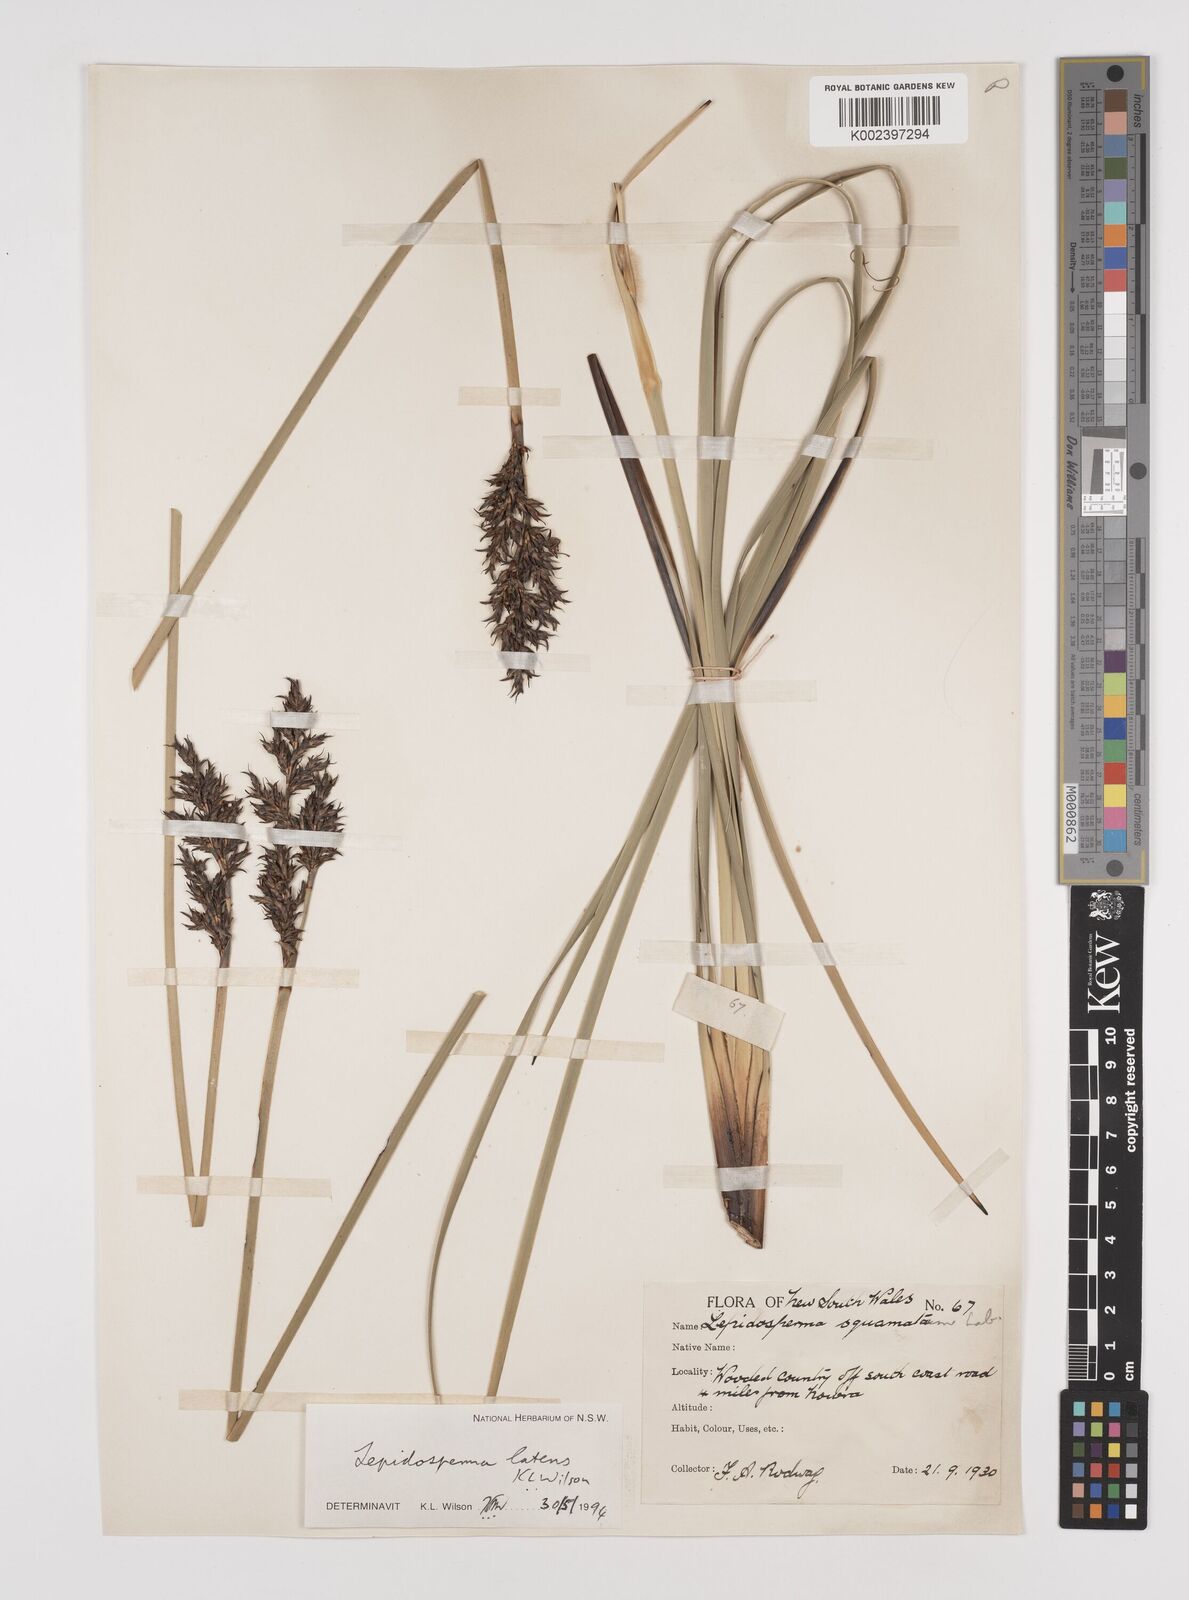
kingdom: Plantae
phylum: Tracheophyta
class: Liliopsida
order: Poales
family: Cyperaceae
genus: Lepidosperma
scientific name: Lepidosperma latens
